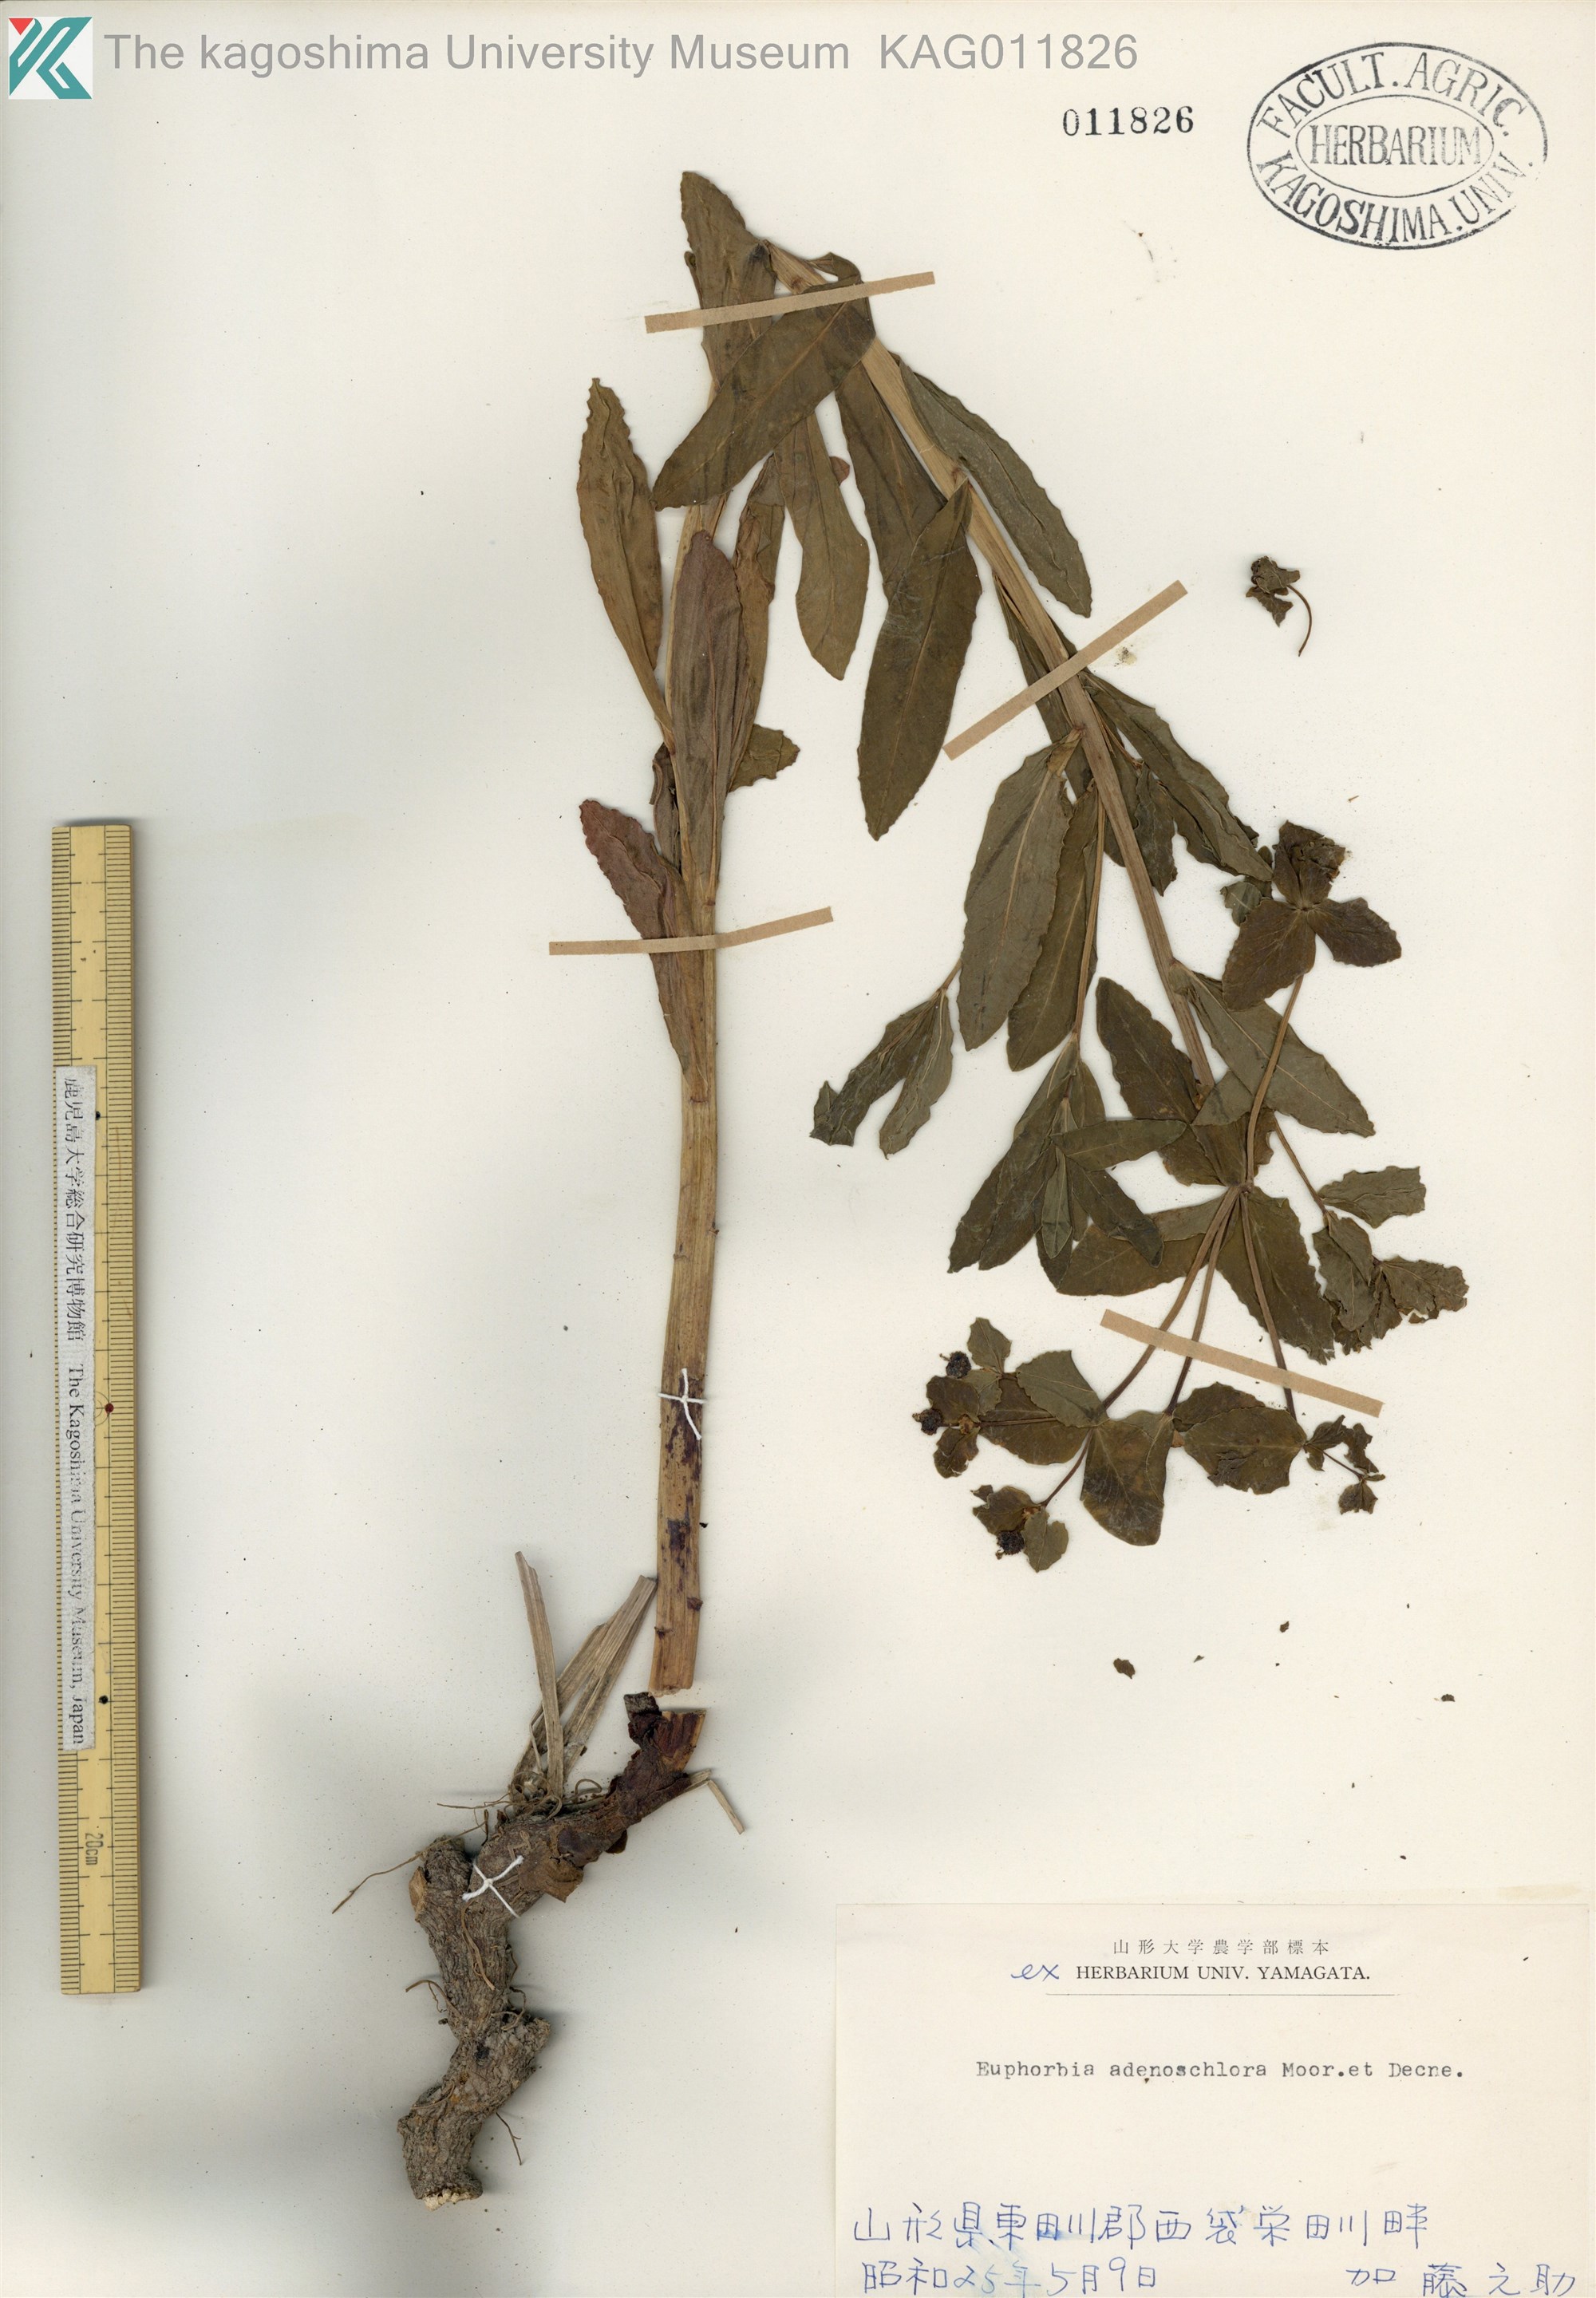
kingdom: Plantae
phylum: Tracheophyta
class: Magnoliopsida
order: Malpighiales
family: Euphorbiaceae
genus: Euphorbia
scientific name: Euphorbia adenochlora
